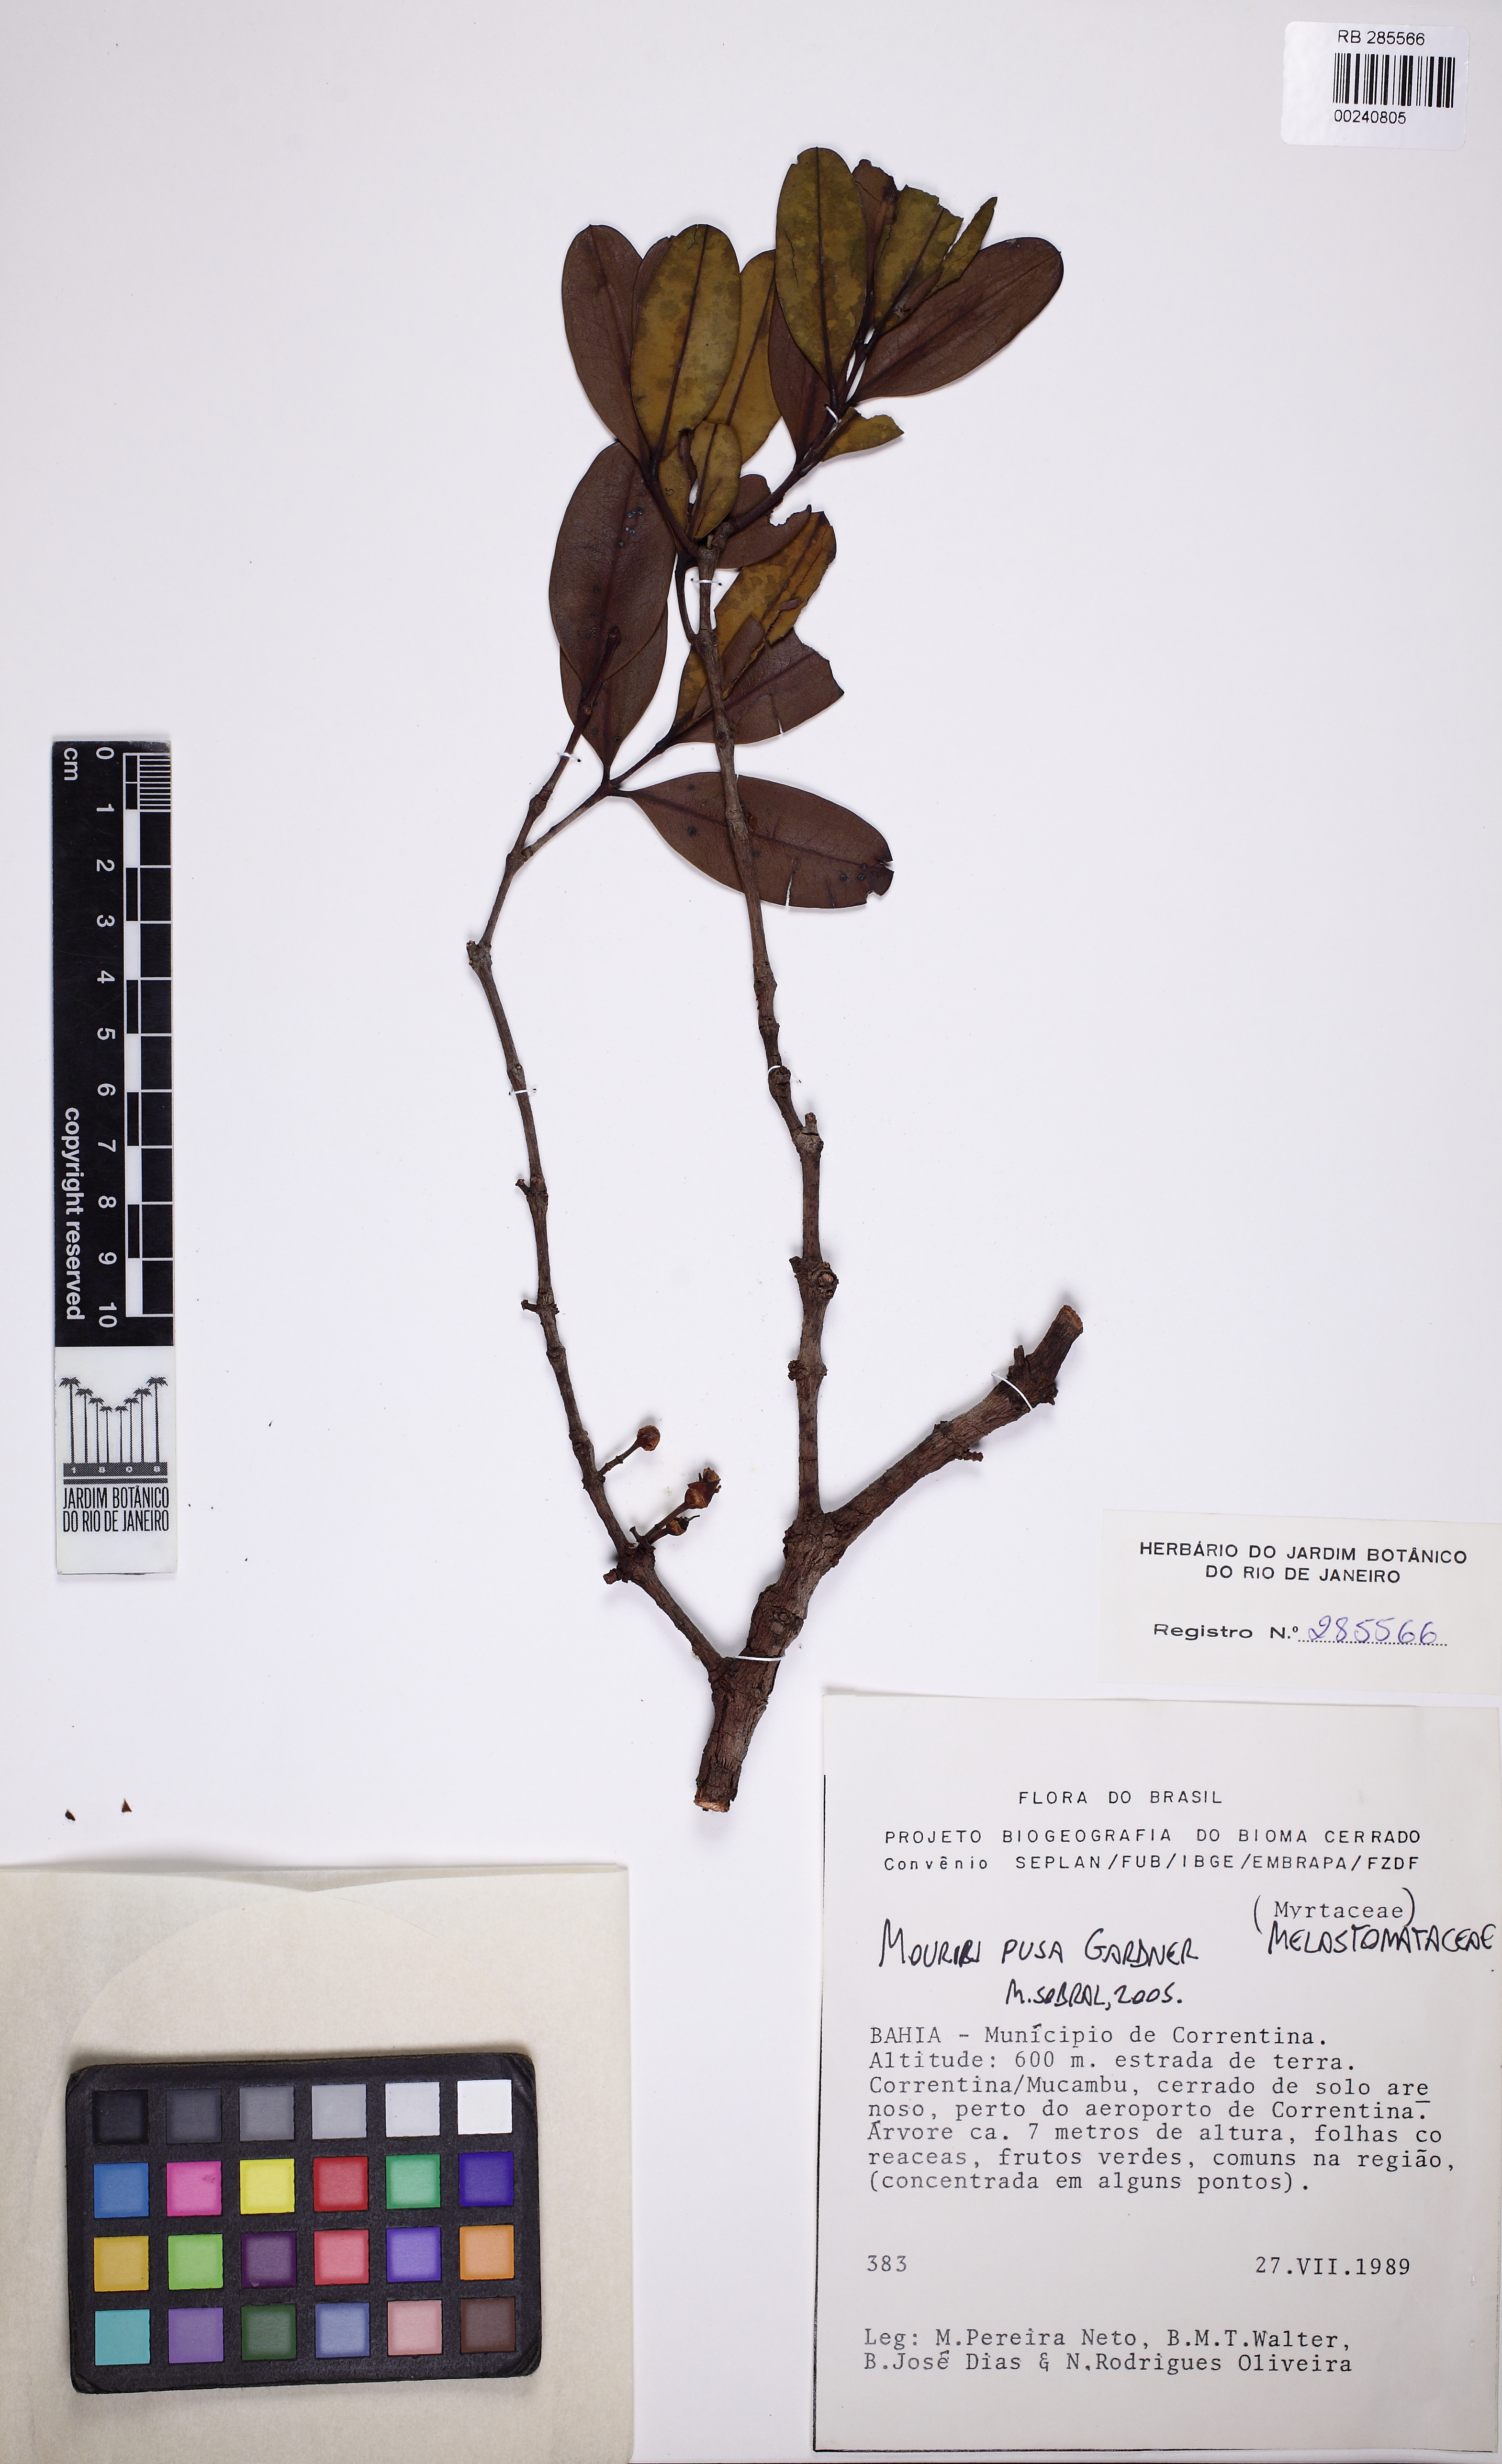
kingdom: Plantae
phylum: Tracheophyta
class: Magnoliopsida
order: Myrtales
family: Melastomataceae
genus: Mouriri
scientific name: Mouriri pusa
